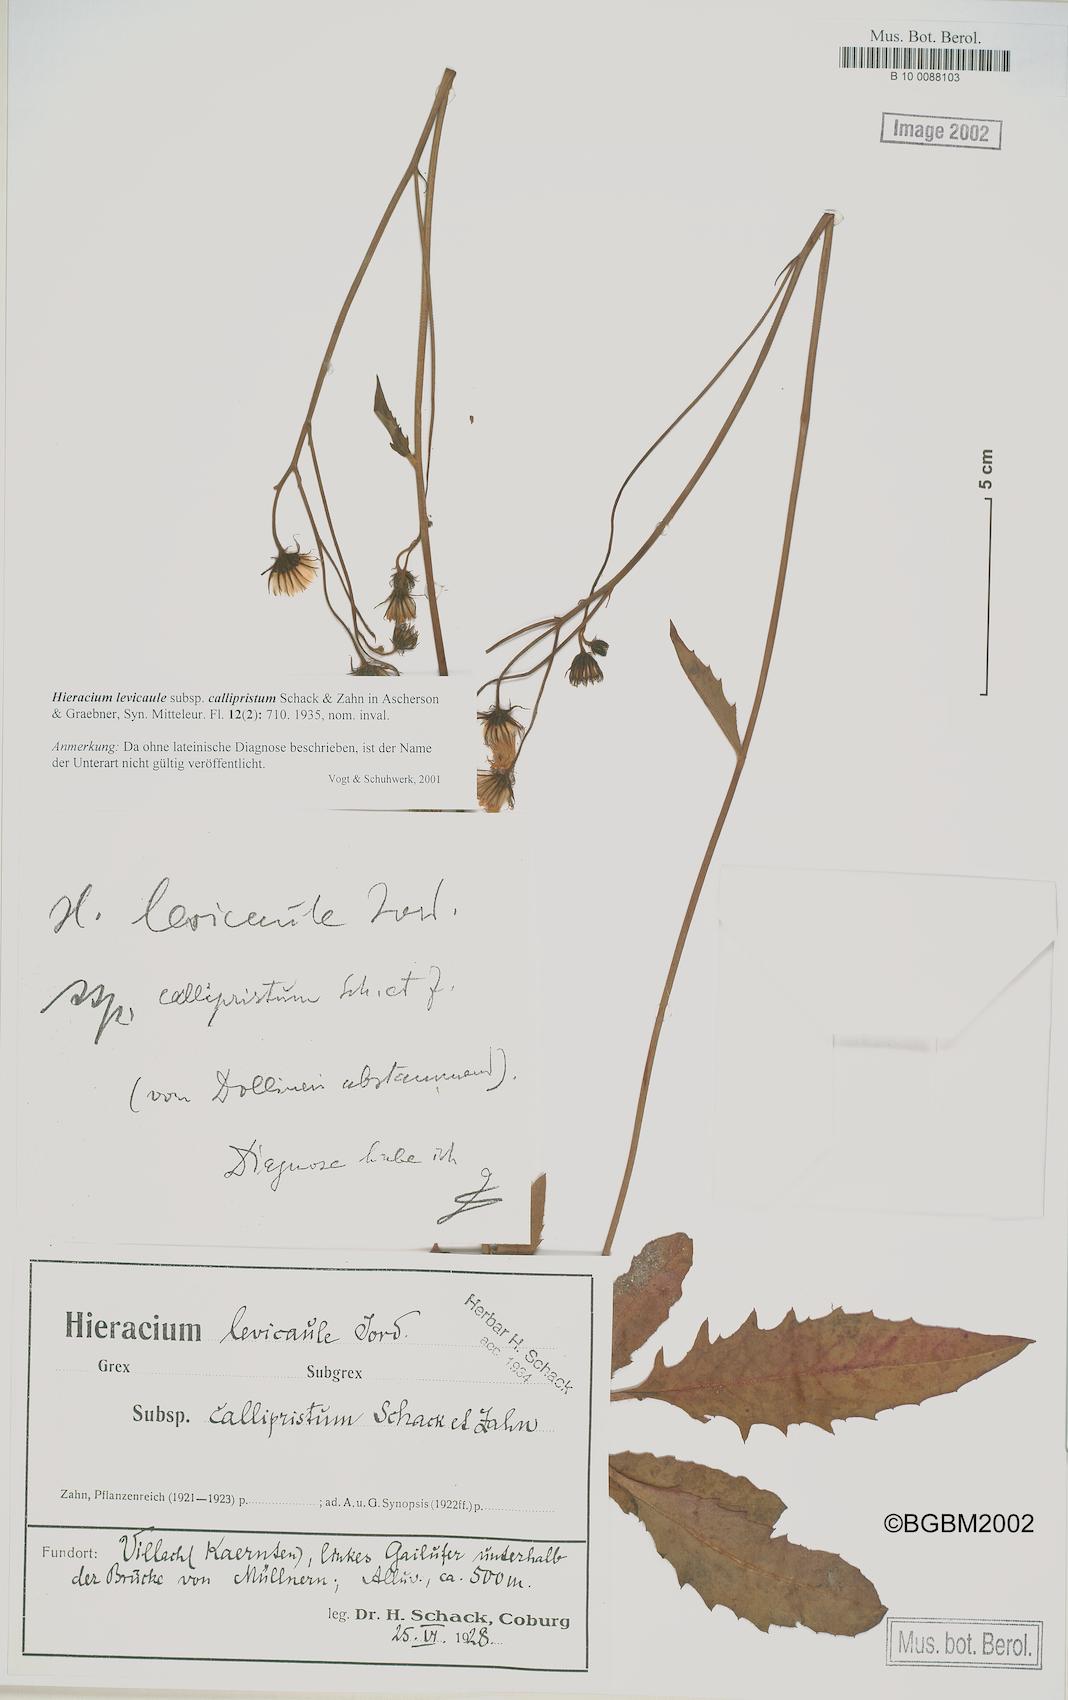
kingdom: Plantae
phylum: Tracheophyta
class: Magnoliopsida
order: Asterales
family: Asteraceae
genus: Hieracium
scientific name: Hieracium
